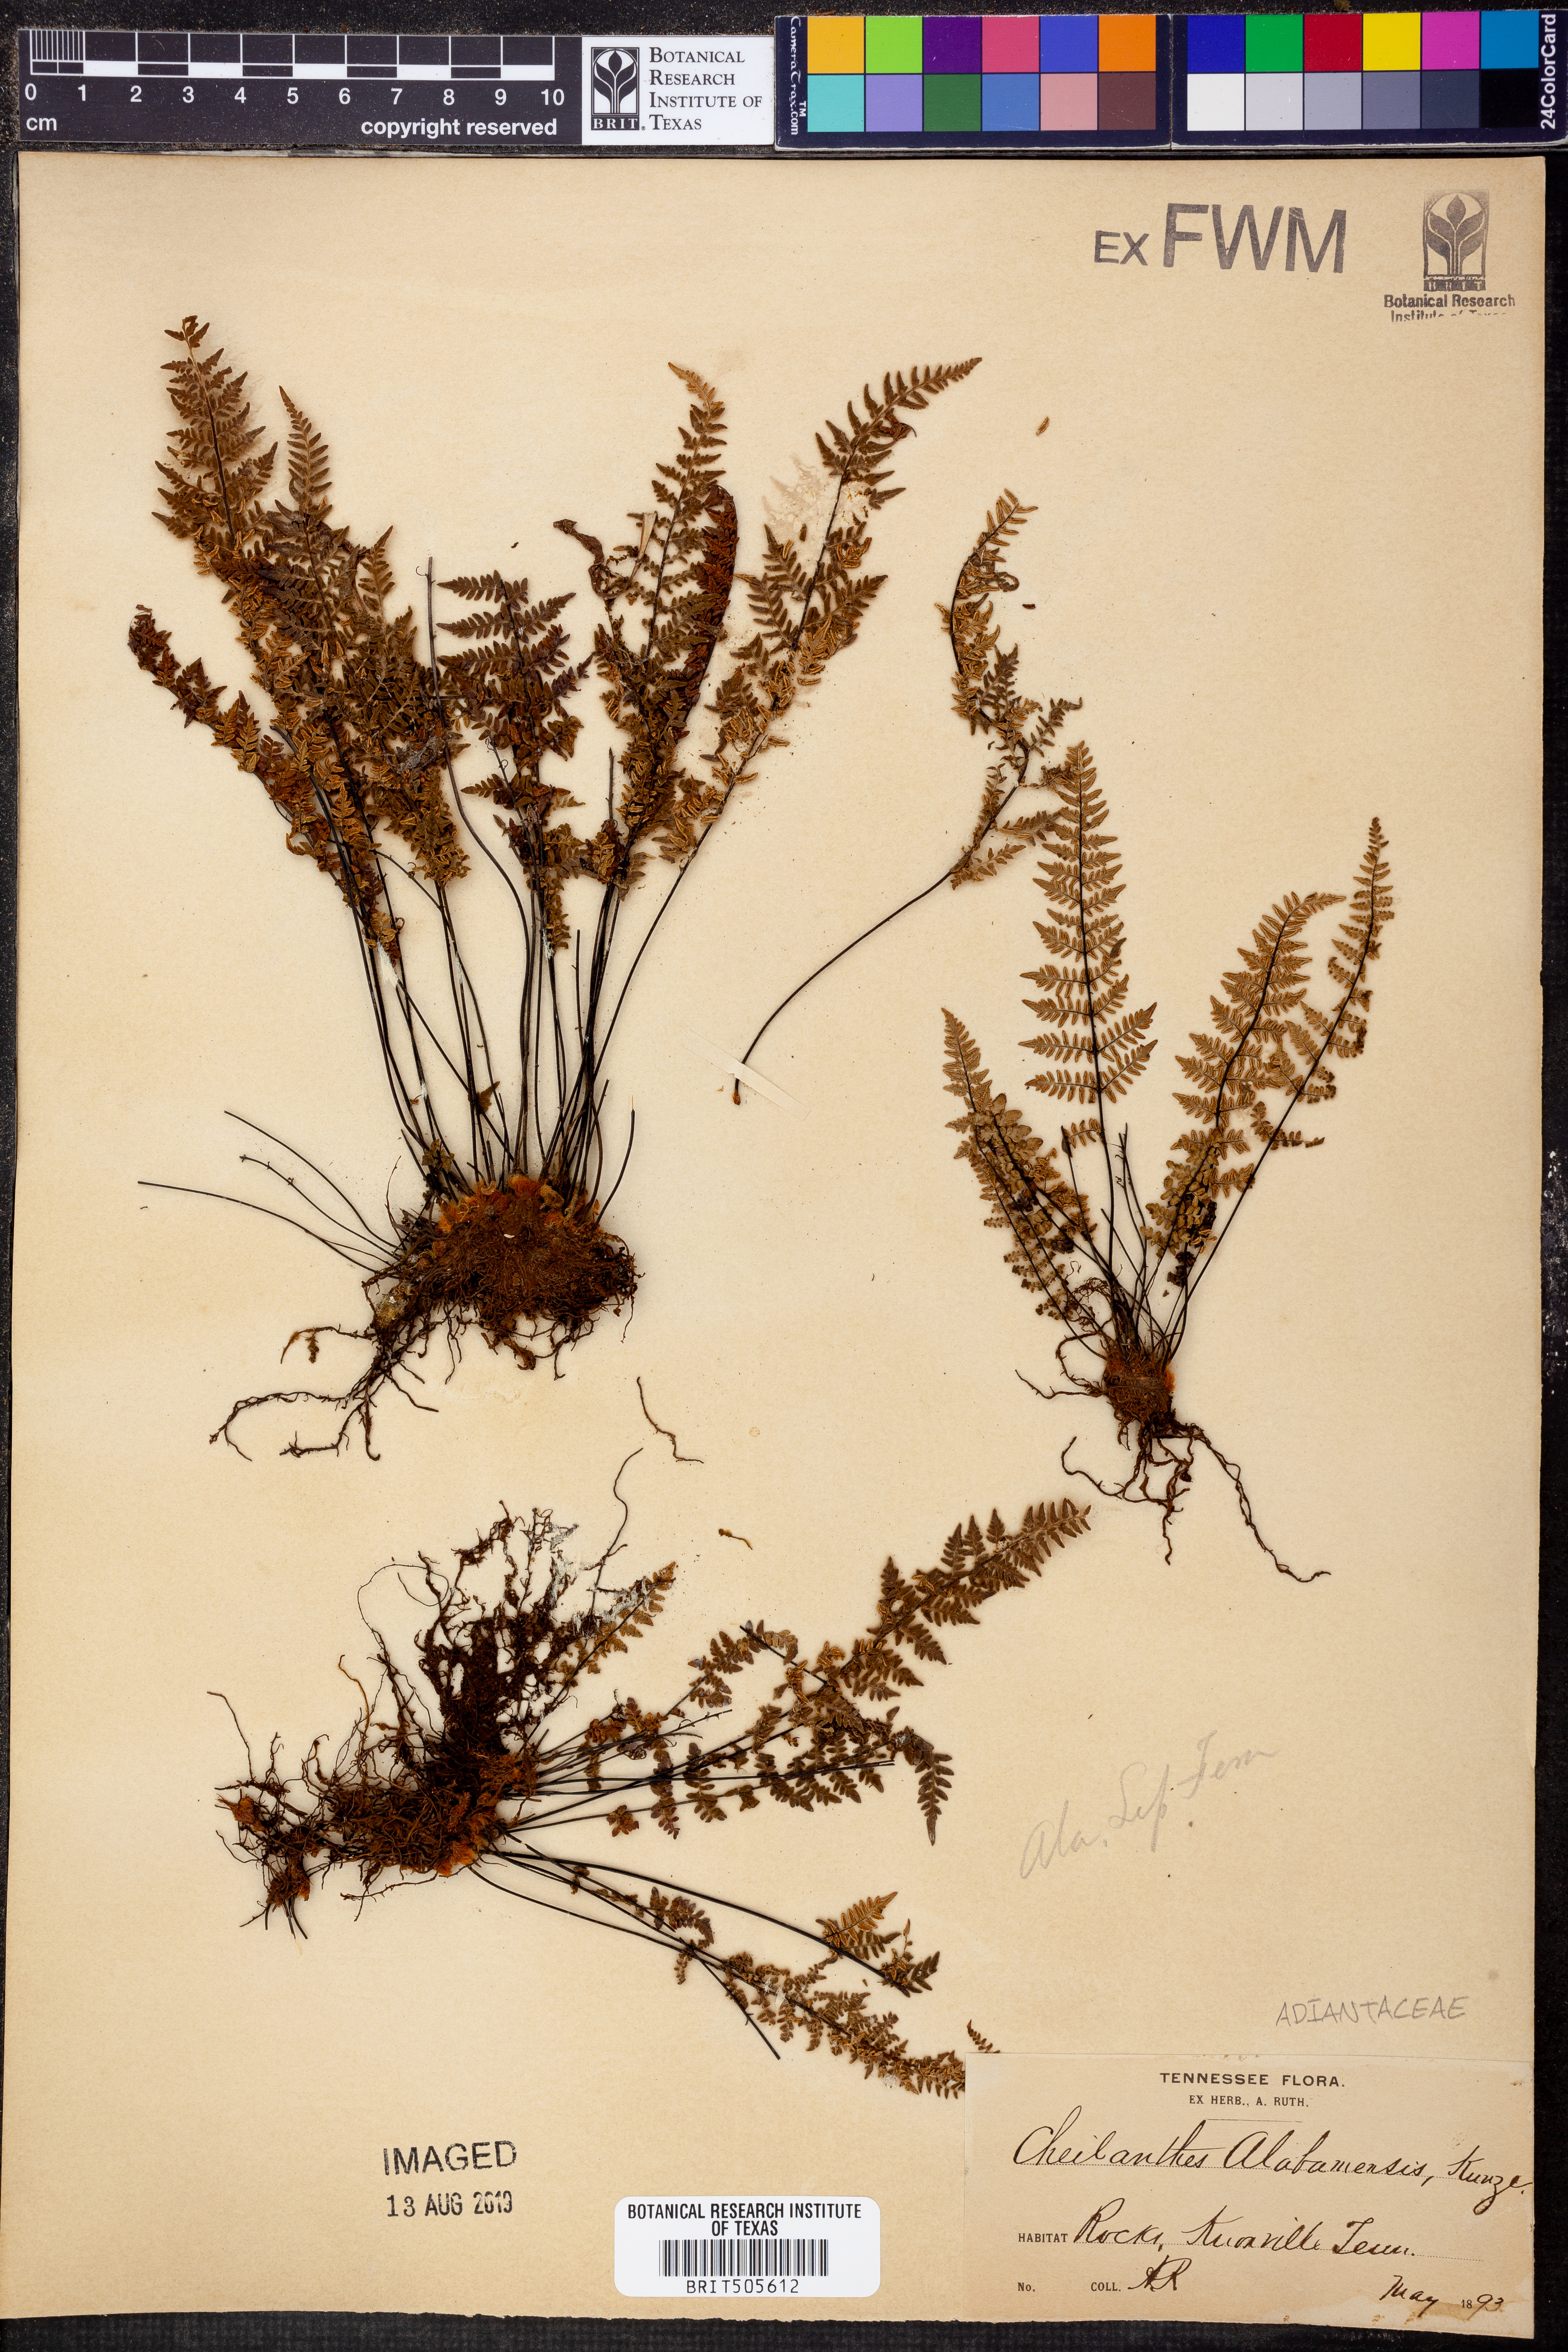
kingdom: Plantae
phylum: Tracheophyta
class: Polypodiopsida
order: Polypodiales
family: Pteridaceae
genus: Myriopteris
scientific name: Myriopteris alabamensis
